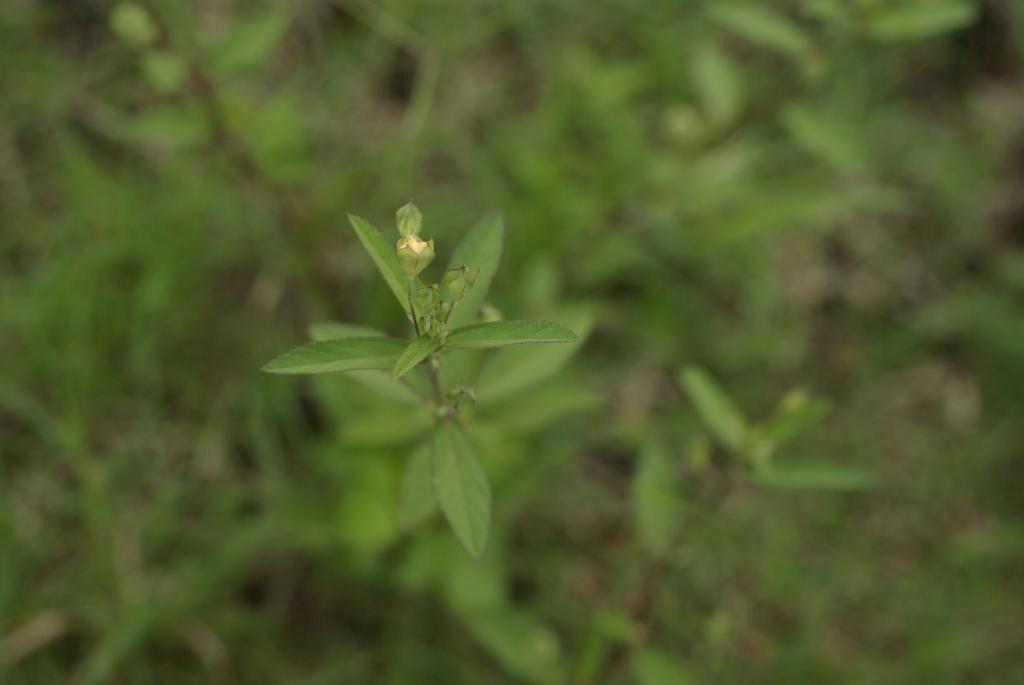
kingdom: Plantae
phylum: Tracheophyta
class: Magnoliopsida
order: Malvales
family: Malvaceae
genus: Sida
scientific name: Sida rhombifolia
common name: Queensland-hemp
